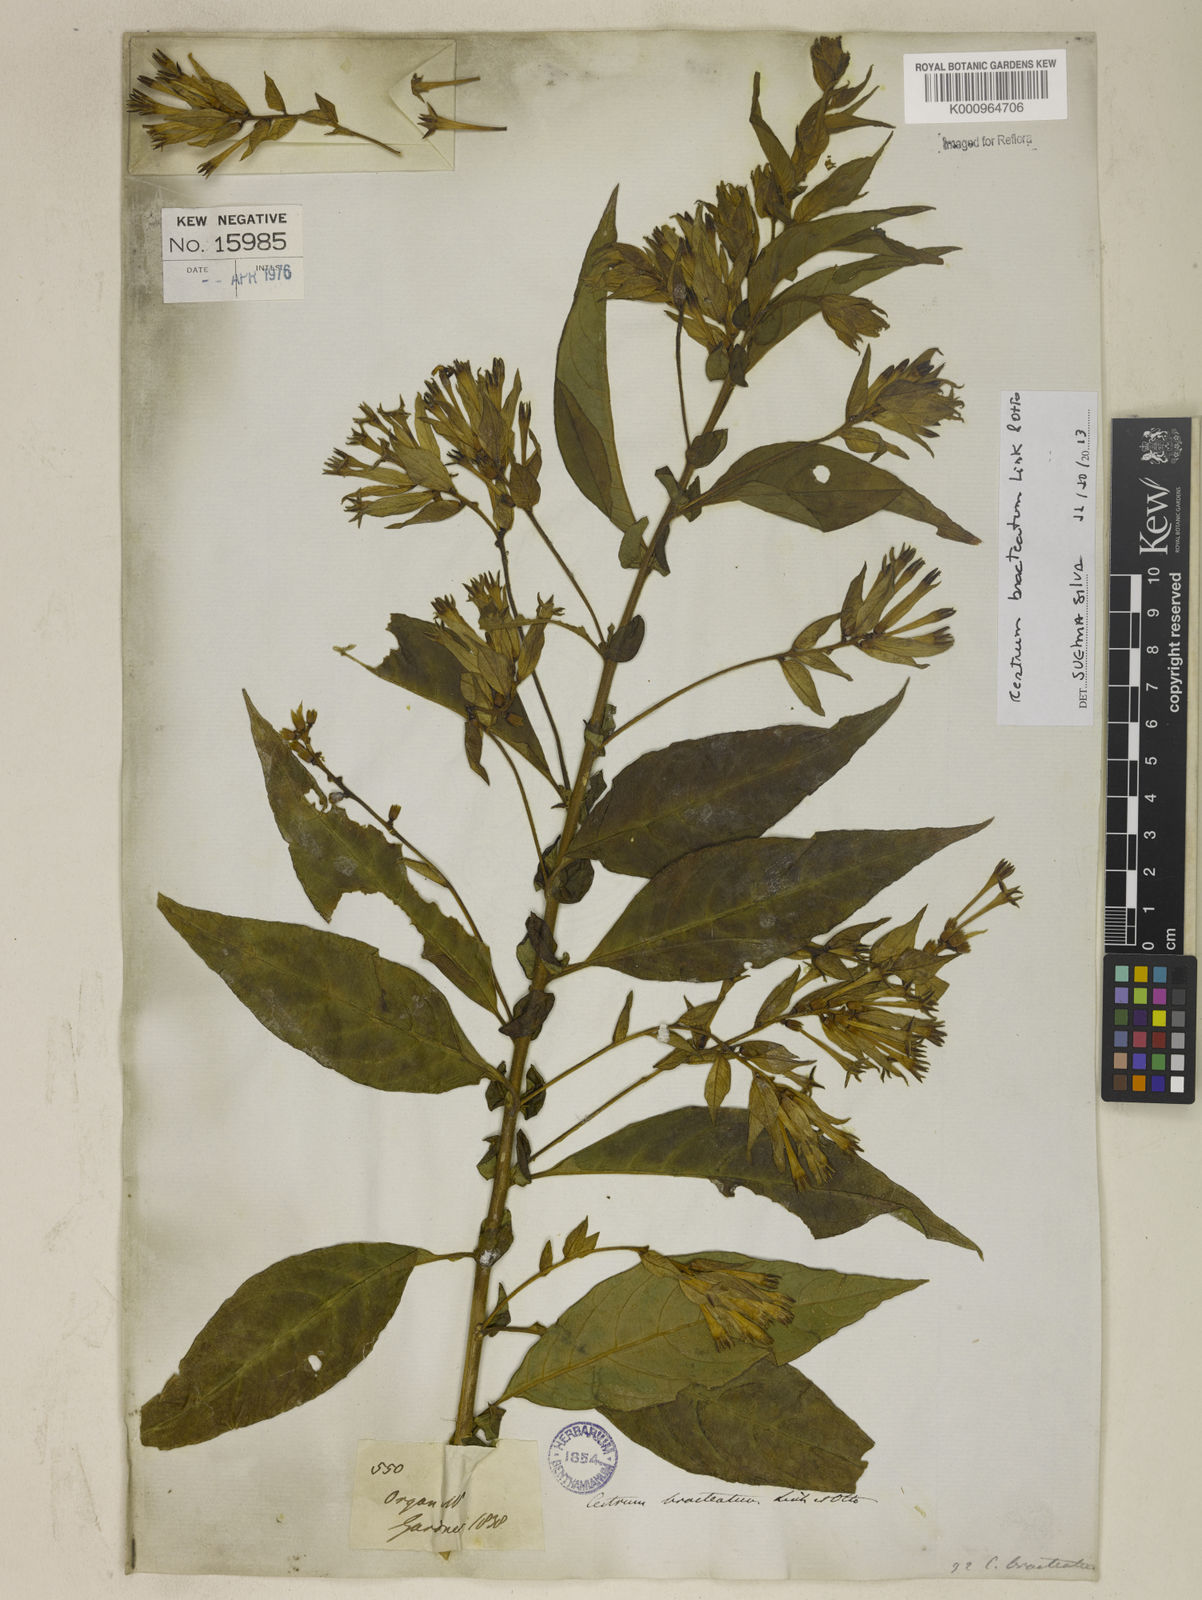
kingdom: Plantae
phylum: Tracheophyta
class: Magnoliopsida
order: Solanales
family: Solanaceae
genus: Cestrum
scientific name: Cestrum bracteatum
